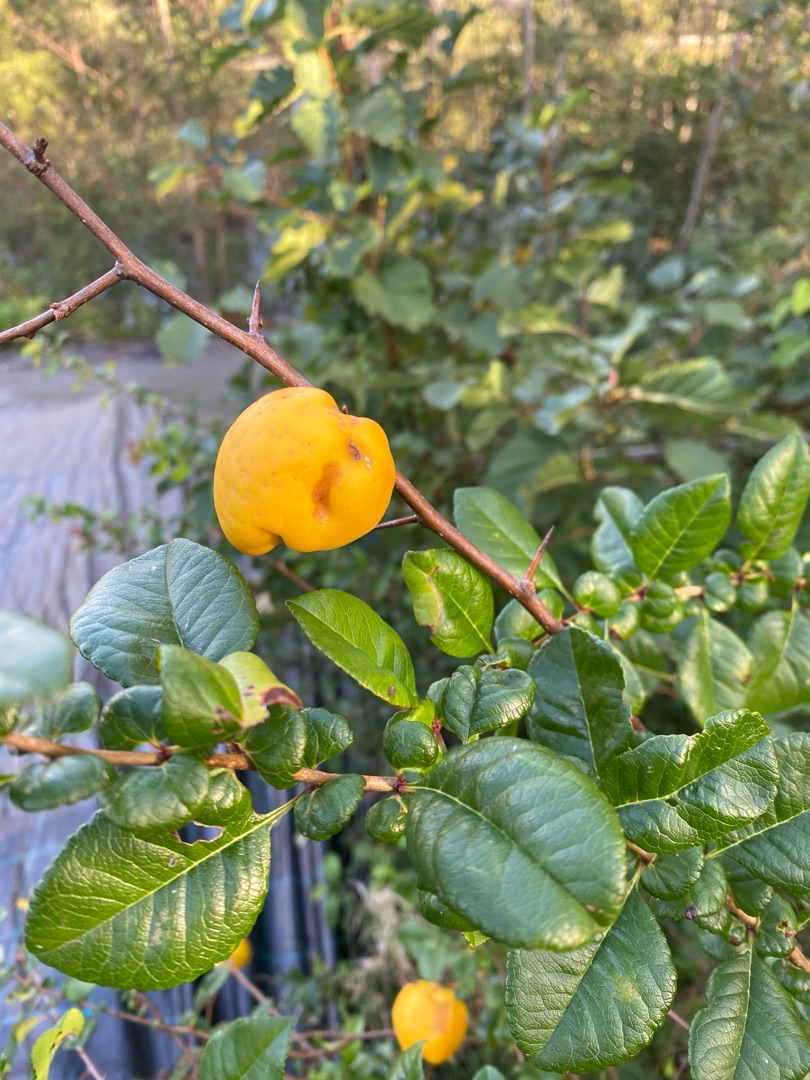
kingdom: Plantae
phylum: Tracheophyta
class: Magnoliopsida
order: Rosales
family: Rosaceae
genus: Chaenomeles
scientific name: Chaenomeles japonica
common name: Lille japankvæde
